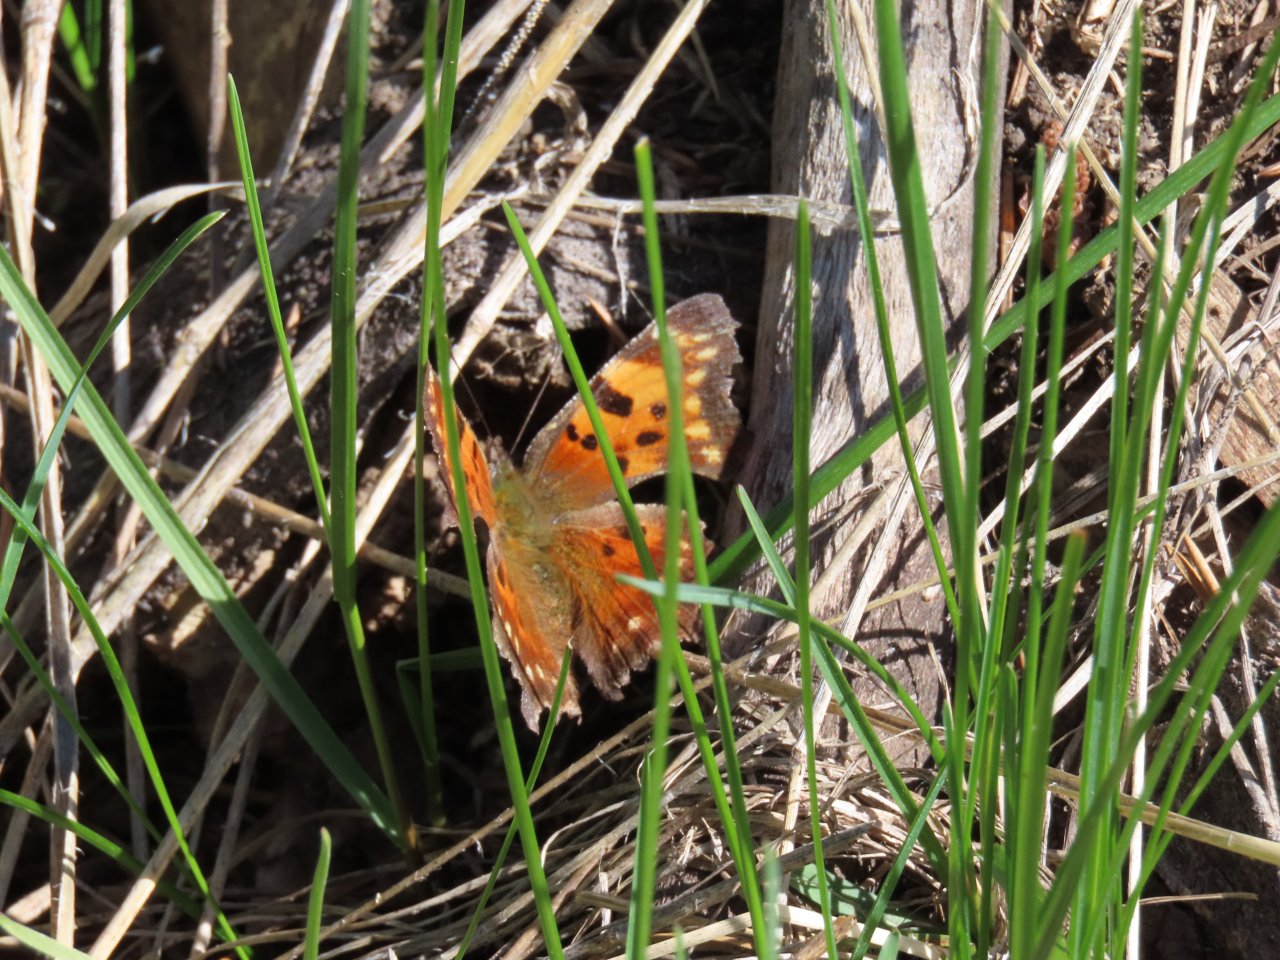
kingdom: Animalia
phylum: Arthropoda
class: Insecta
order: Lepidoptera
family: Nymphalidae
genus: Polygonia
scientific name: Polygonia progne
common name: Gray Comma
